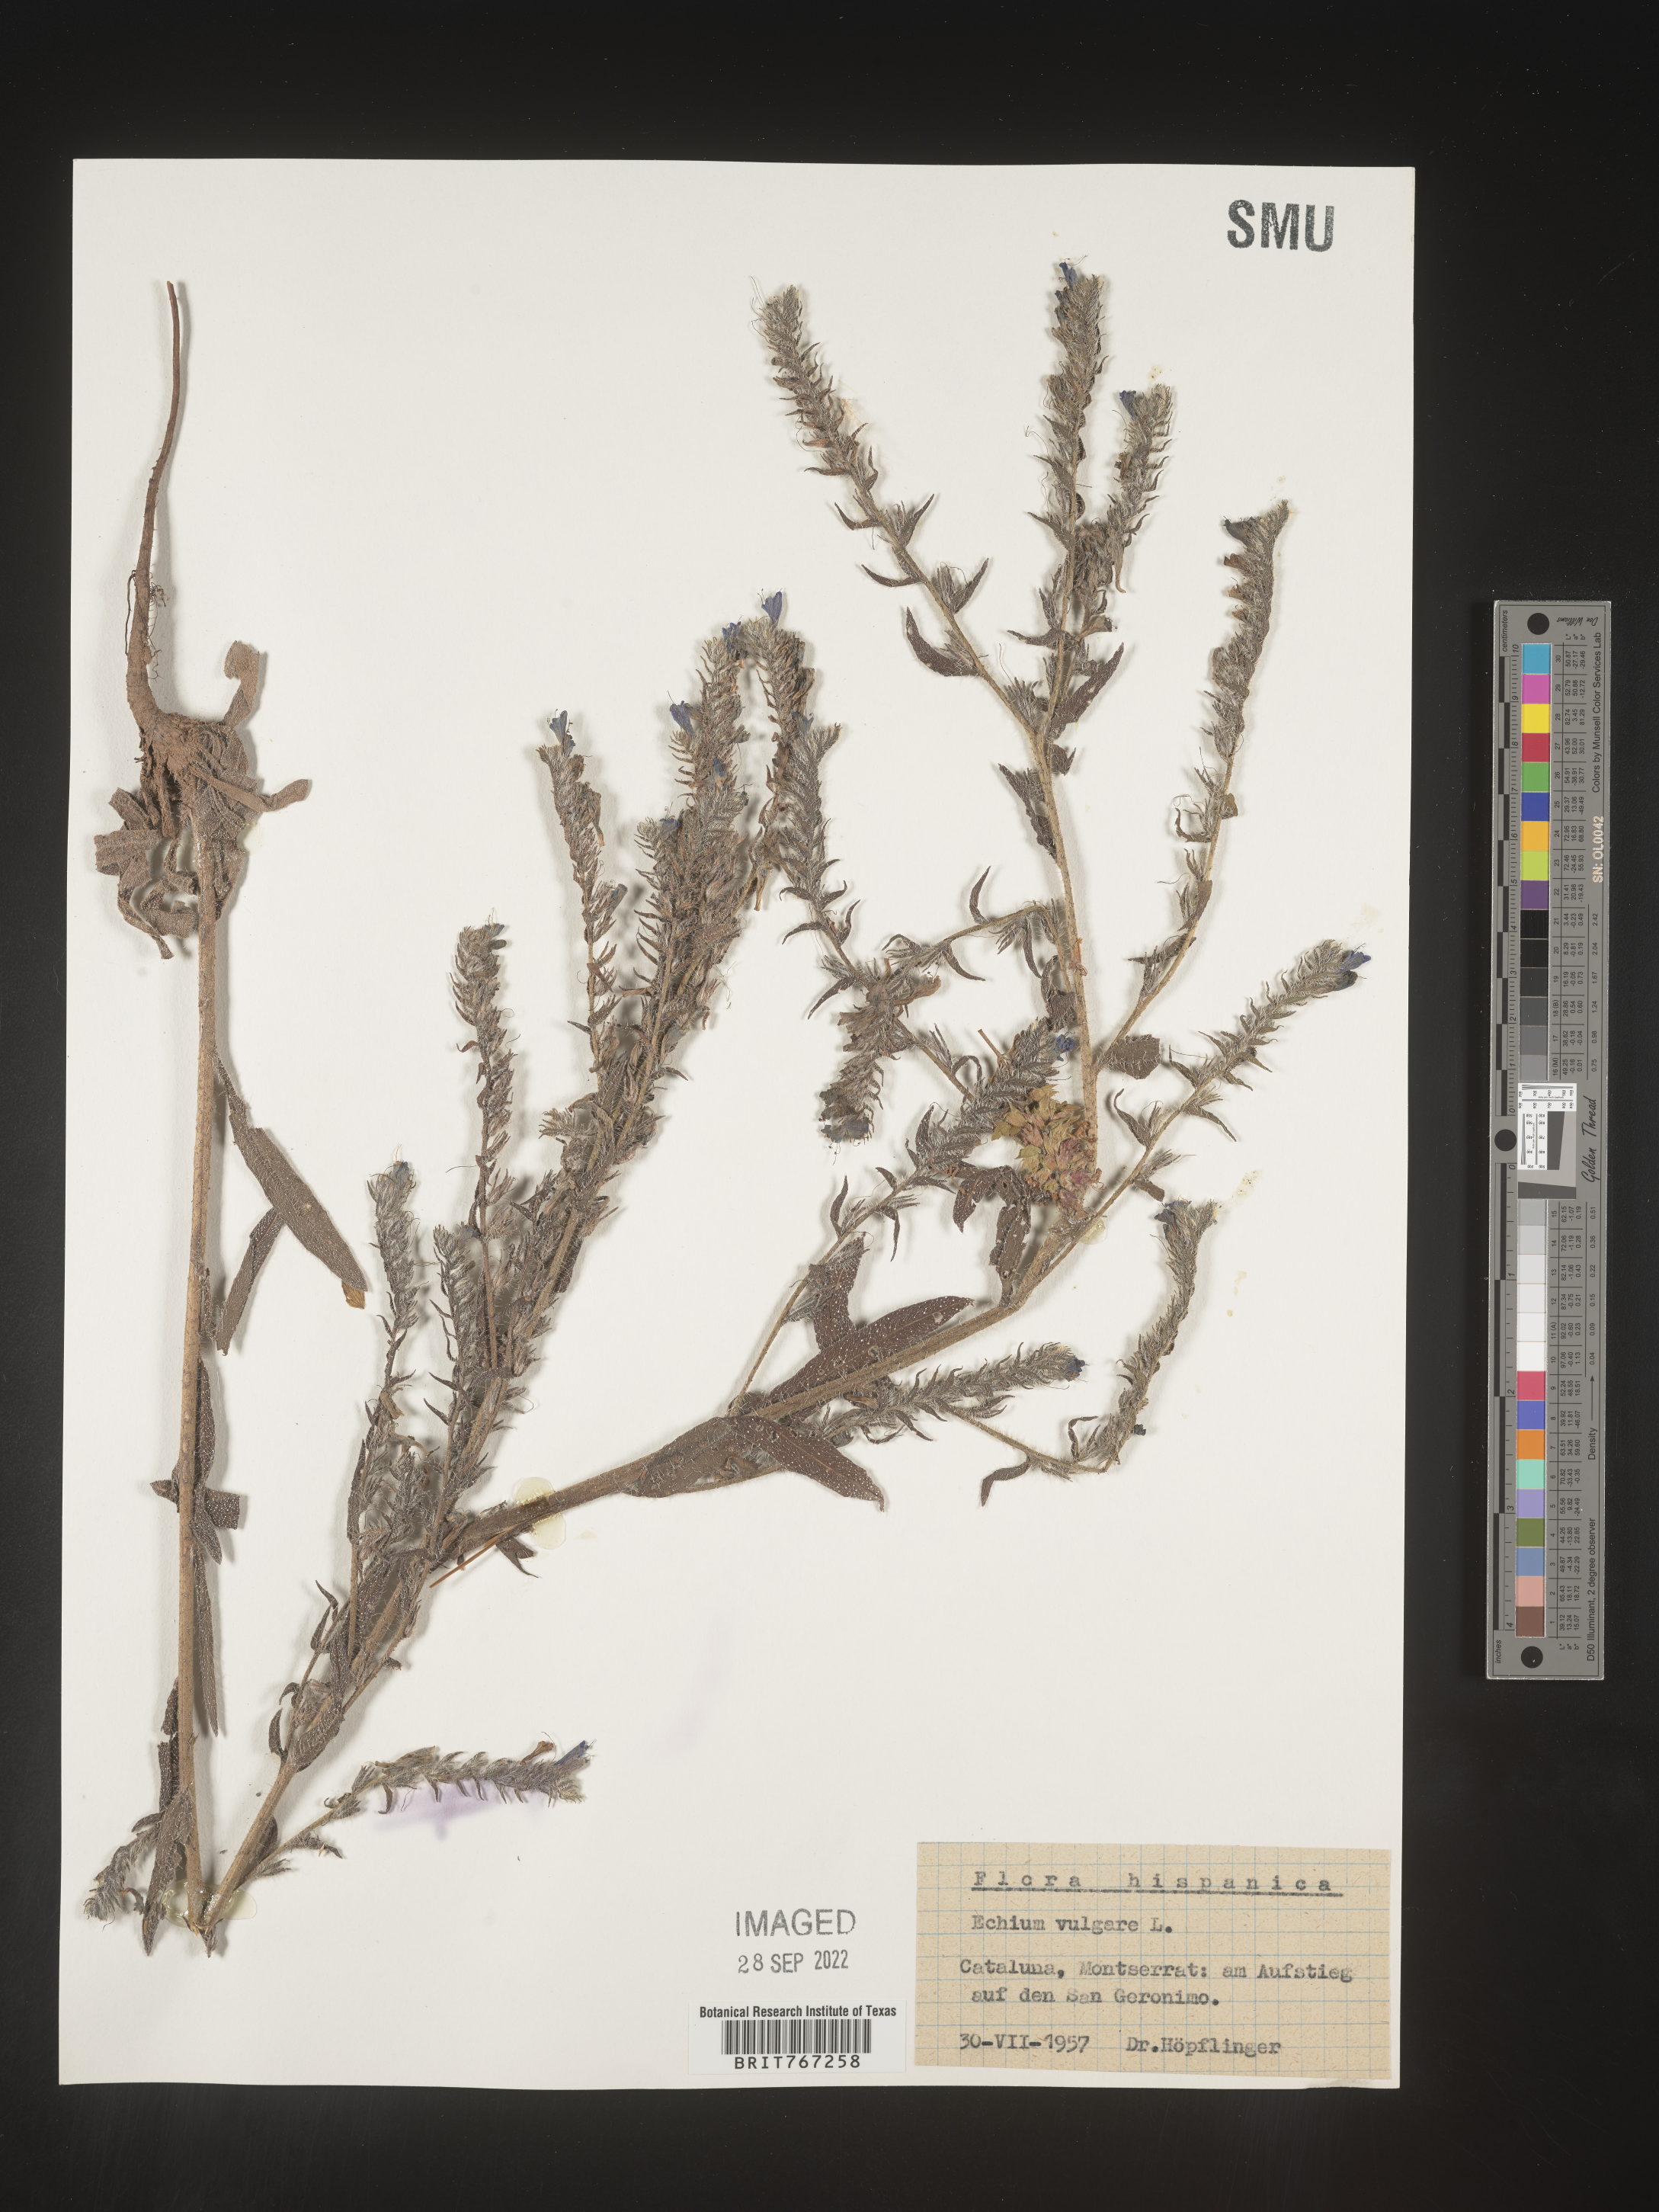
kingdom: Plantae
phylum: Tracheophyta
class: Magnoliopsida
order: Boraginales
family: Boraginaceae
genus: Echium
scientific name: Echium
